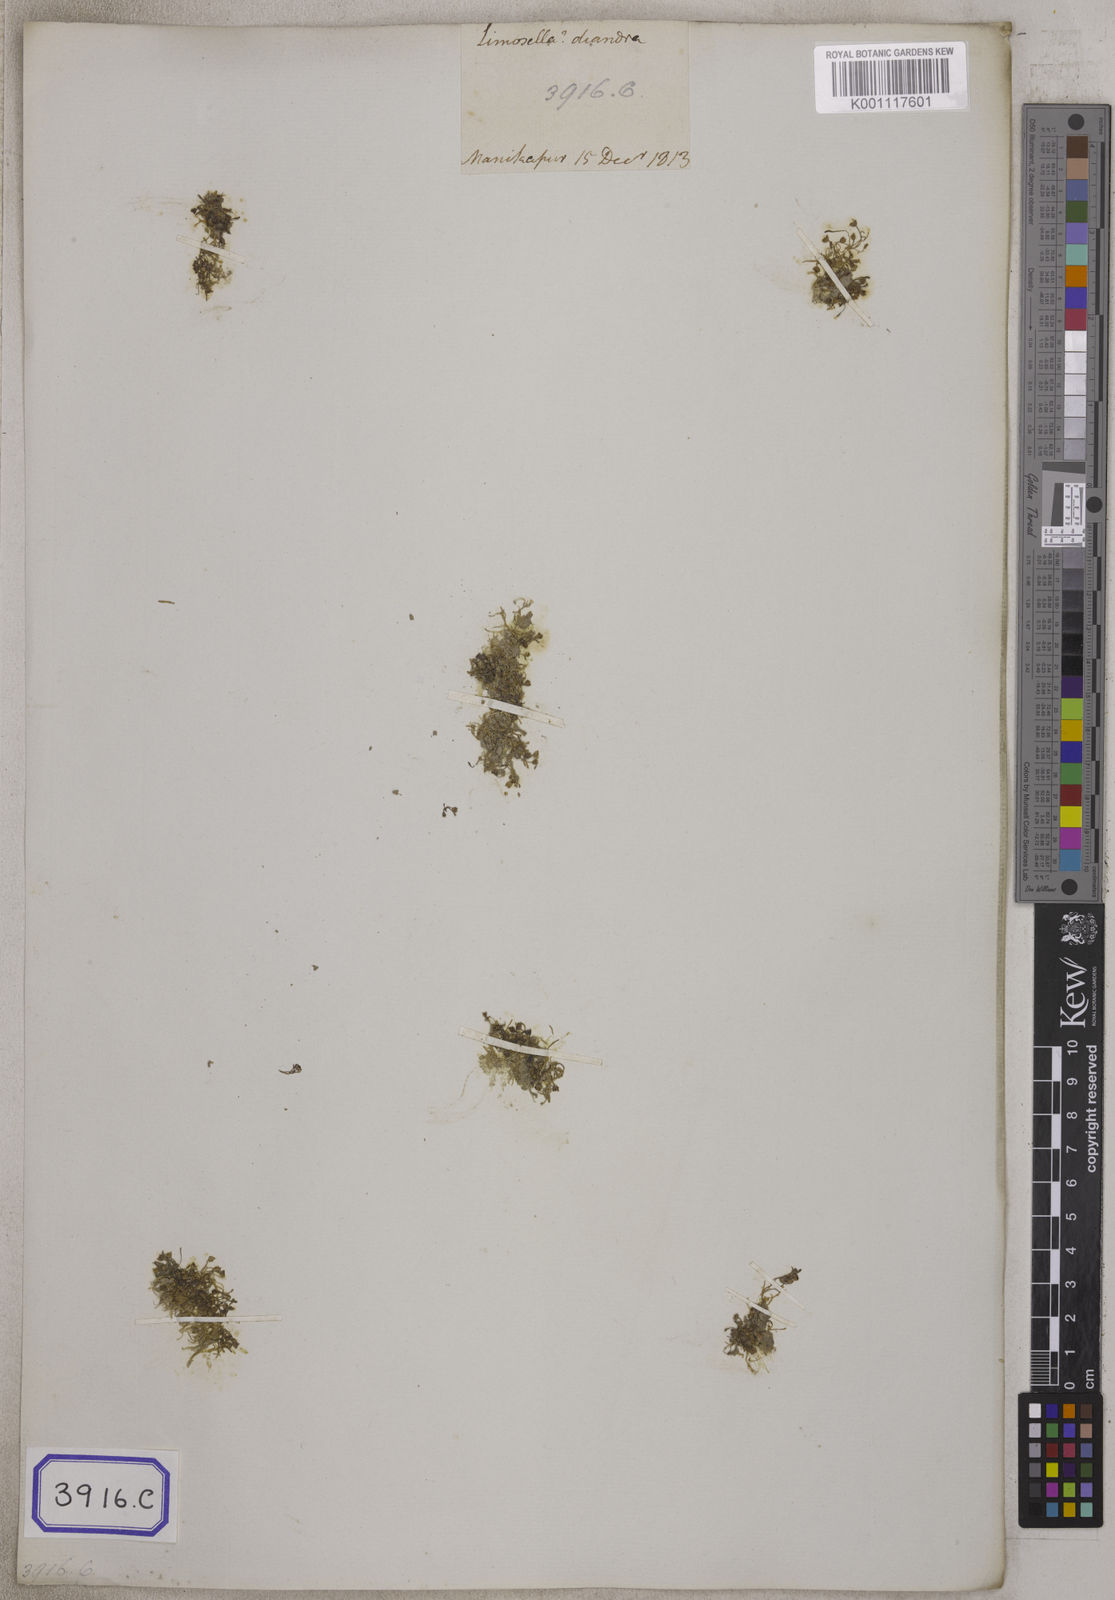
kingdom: Plantae
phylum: Tracheophyta
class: Magnoliopsida
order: Lamiales
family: Phrymaceae
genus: Glossostigma
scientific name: Glossostigma diandrum
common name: Mudmat
